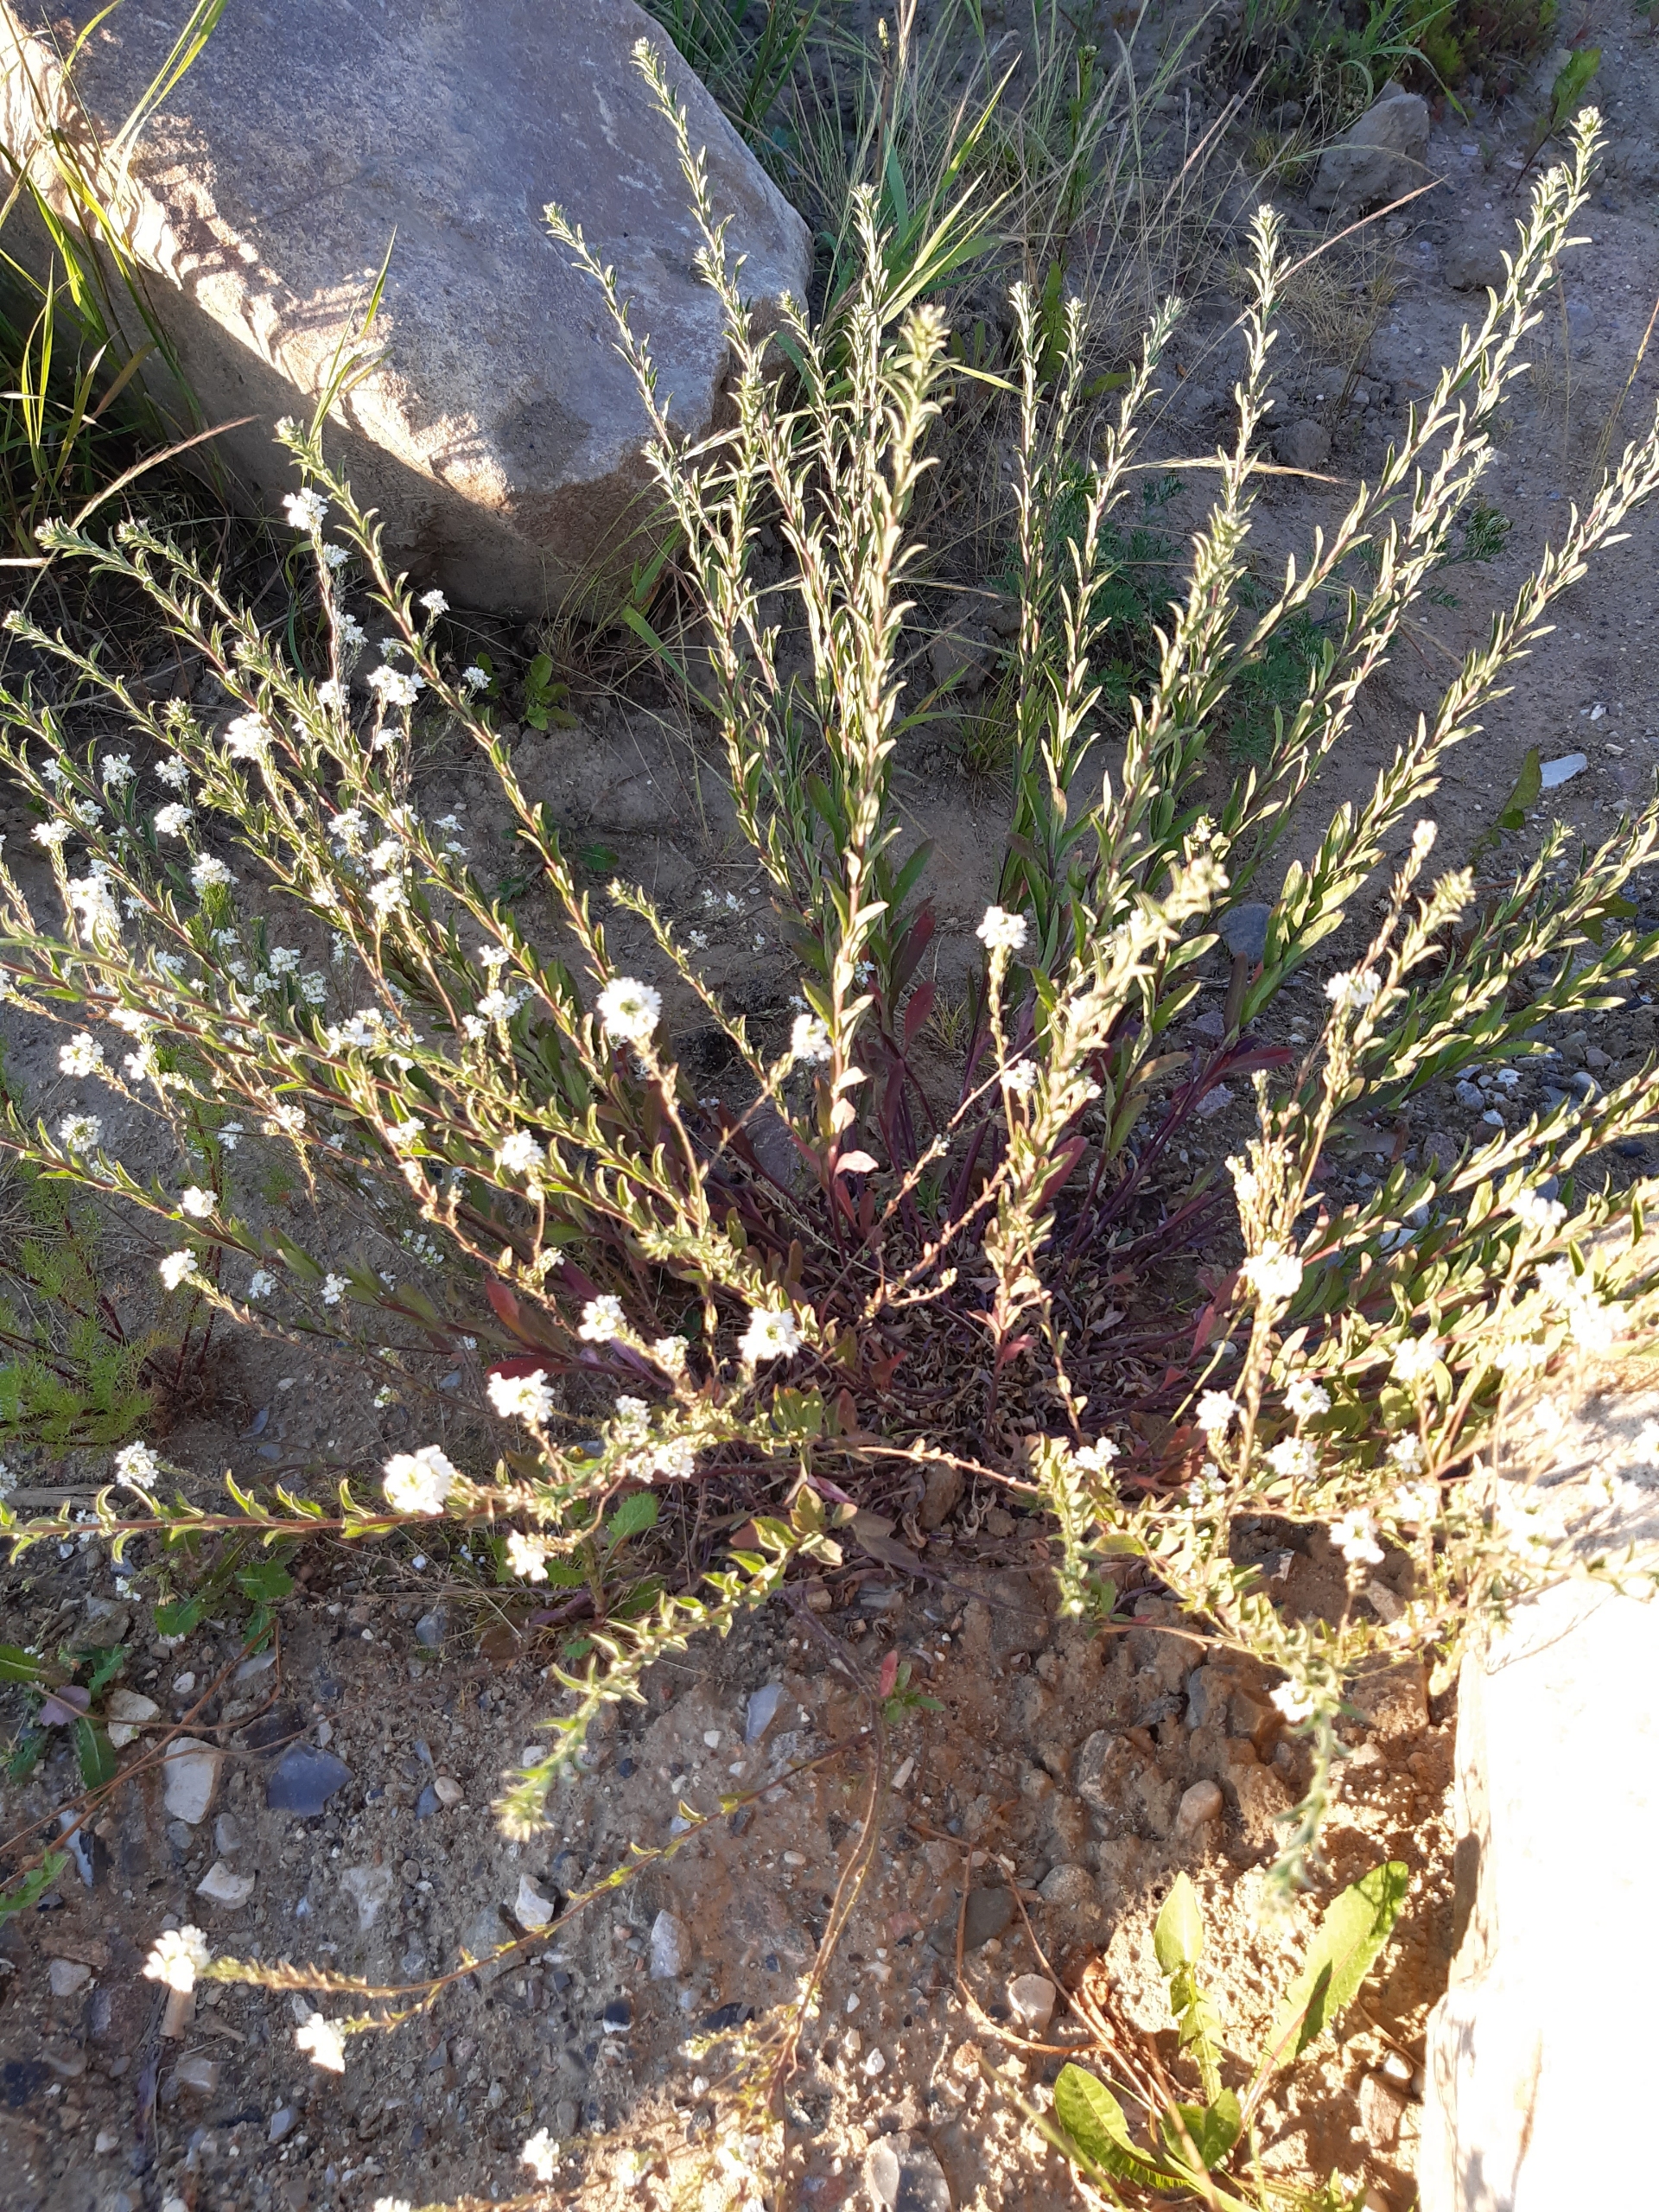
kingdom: Plantae
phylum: Tracheophyta
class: Magnoliopsida
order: Brassicales
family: Brassicaceae
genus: Berteroa
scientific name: Berteroa incana
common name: Kløvplade
